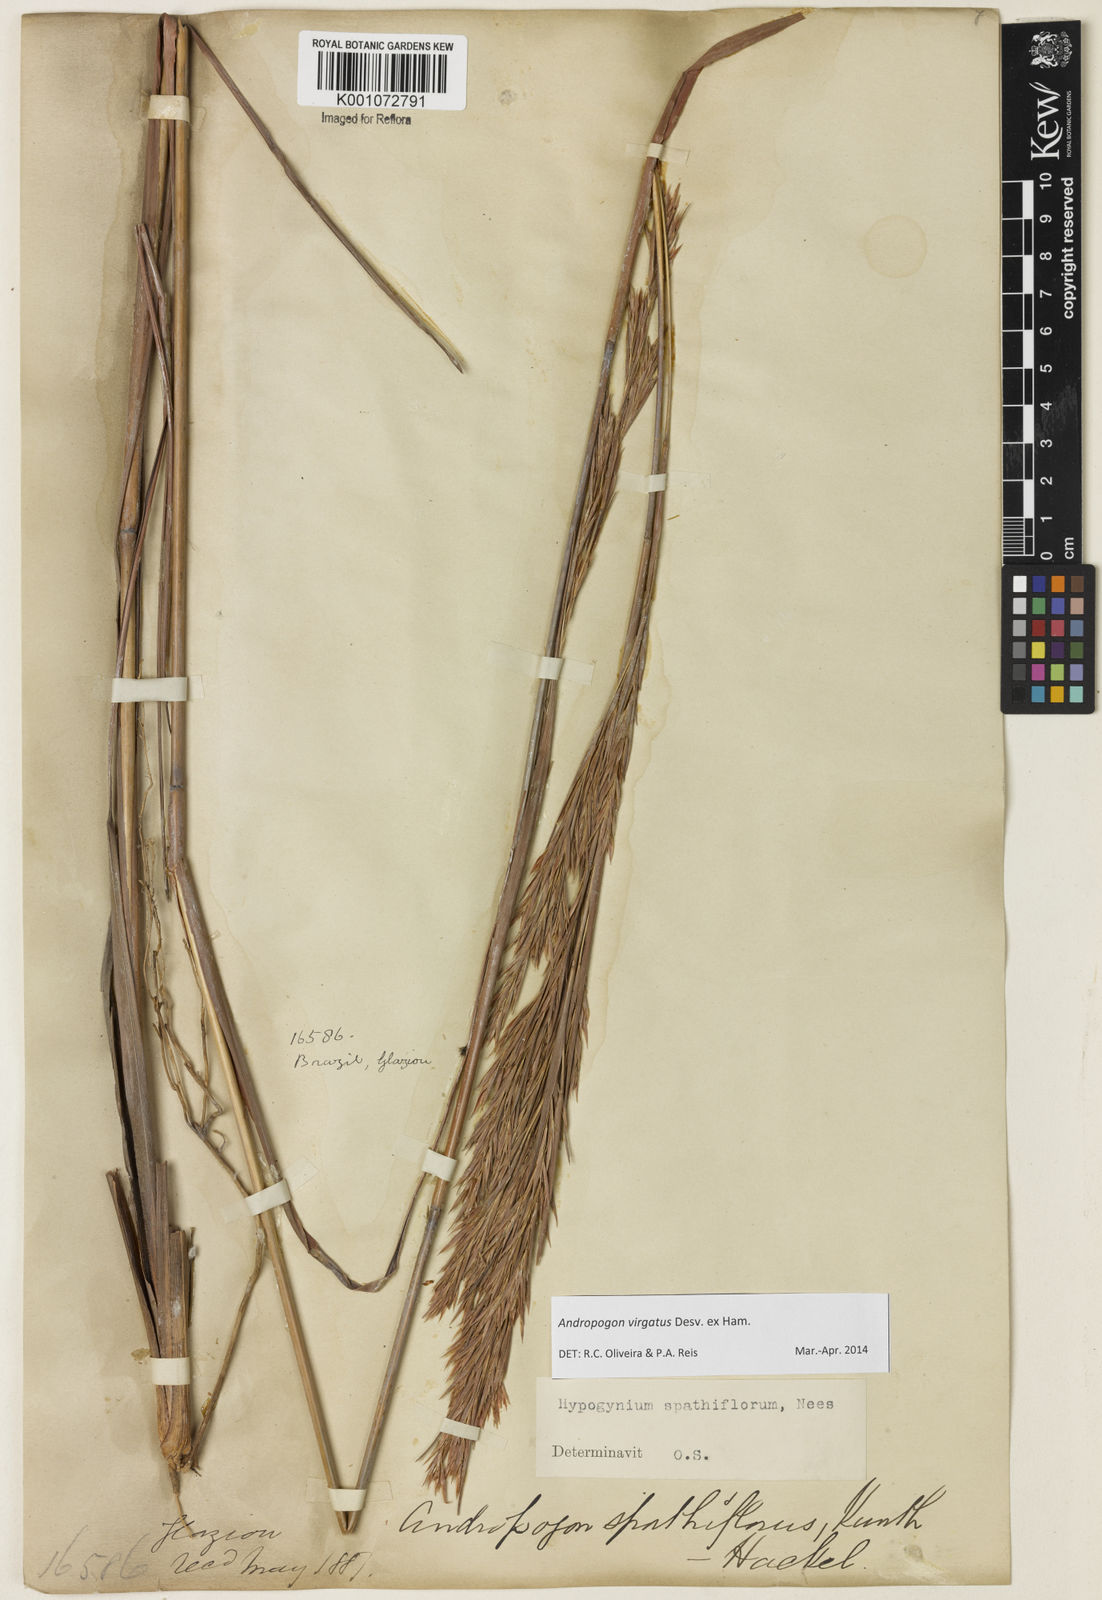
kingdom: Plantae
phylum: Tracheophyta
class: Liliopsida
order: Poales
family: Poaceae
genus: Andropogon
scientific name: Andropogon virgatus
